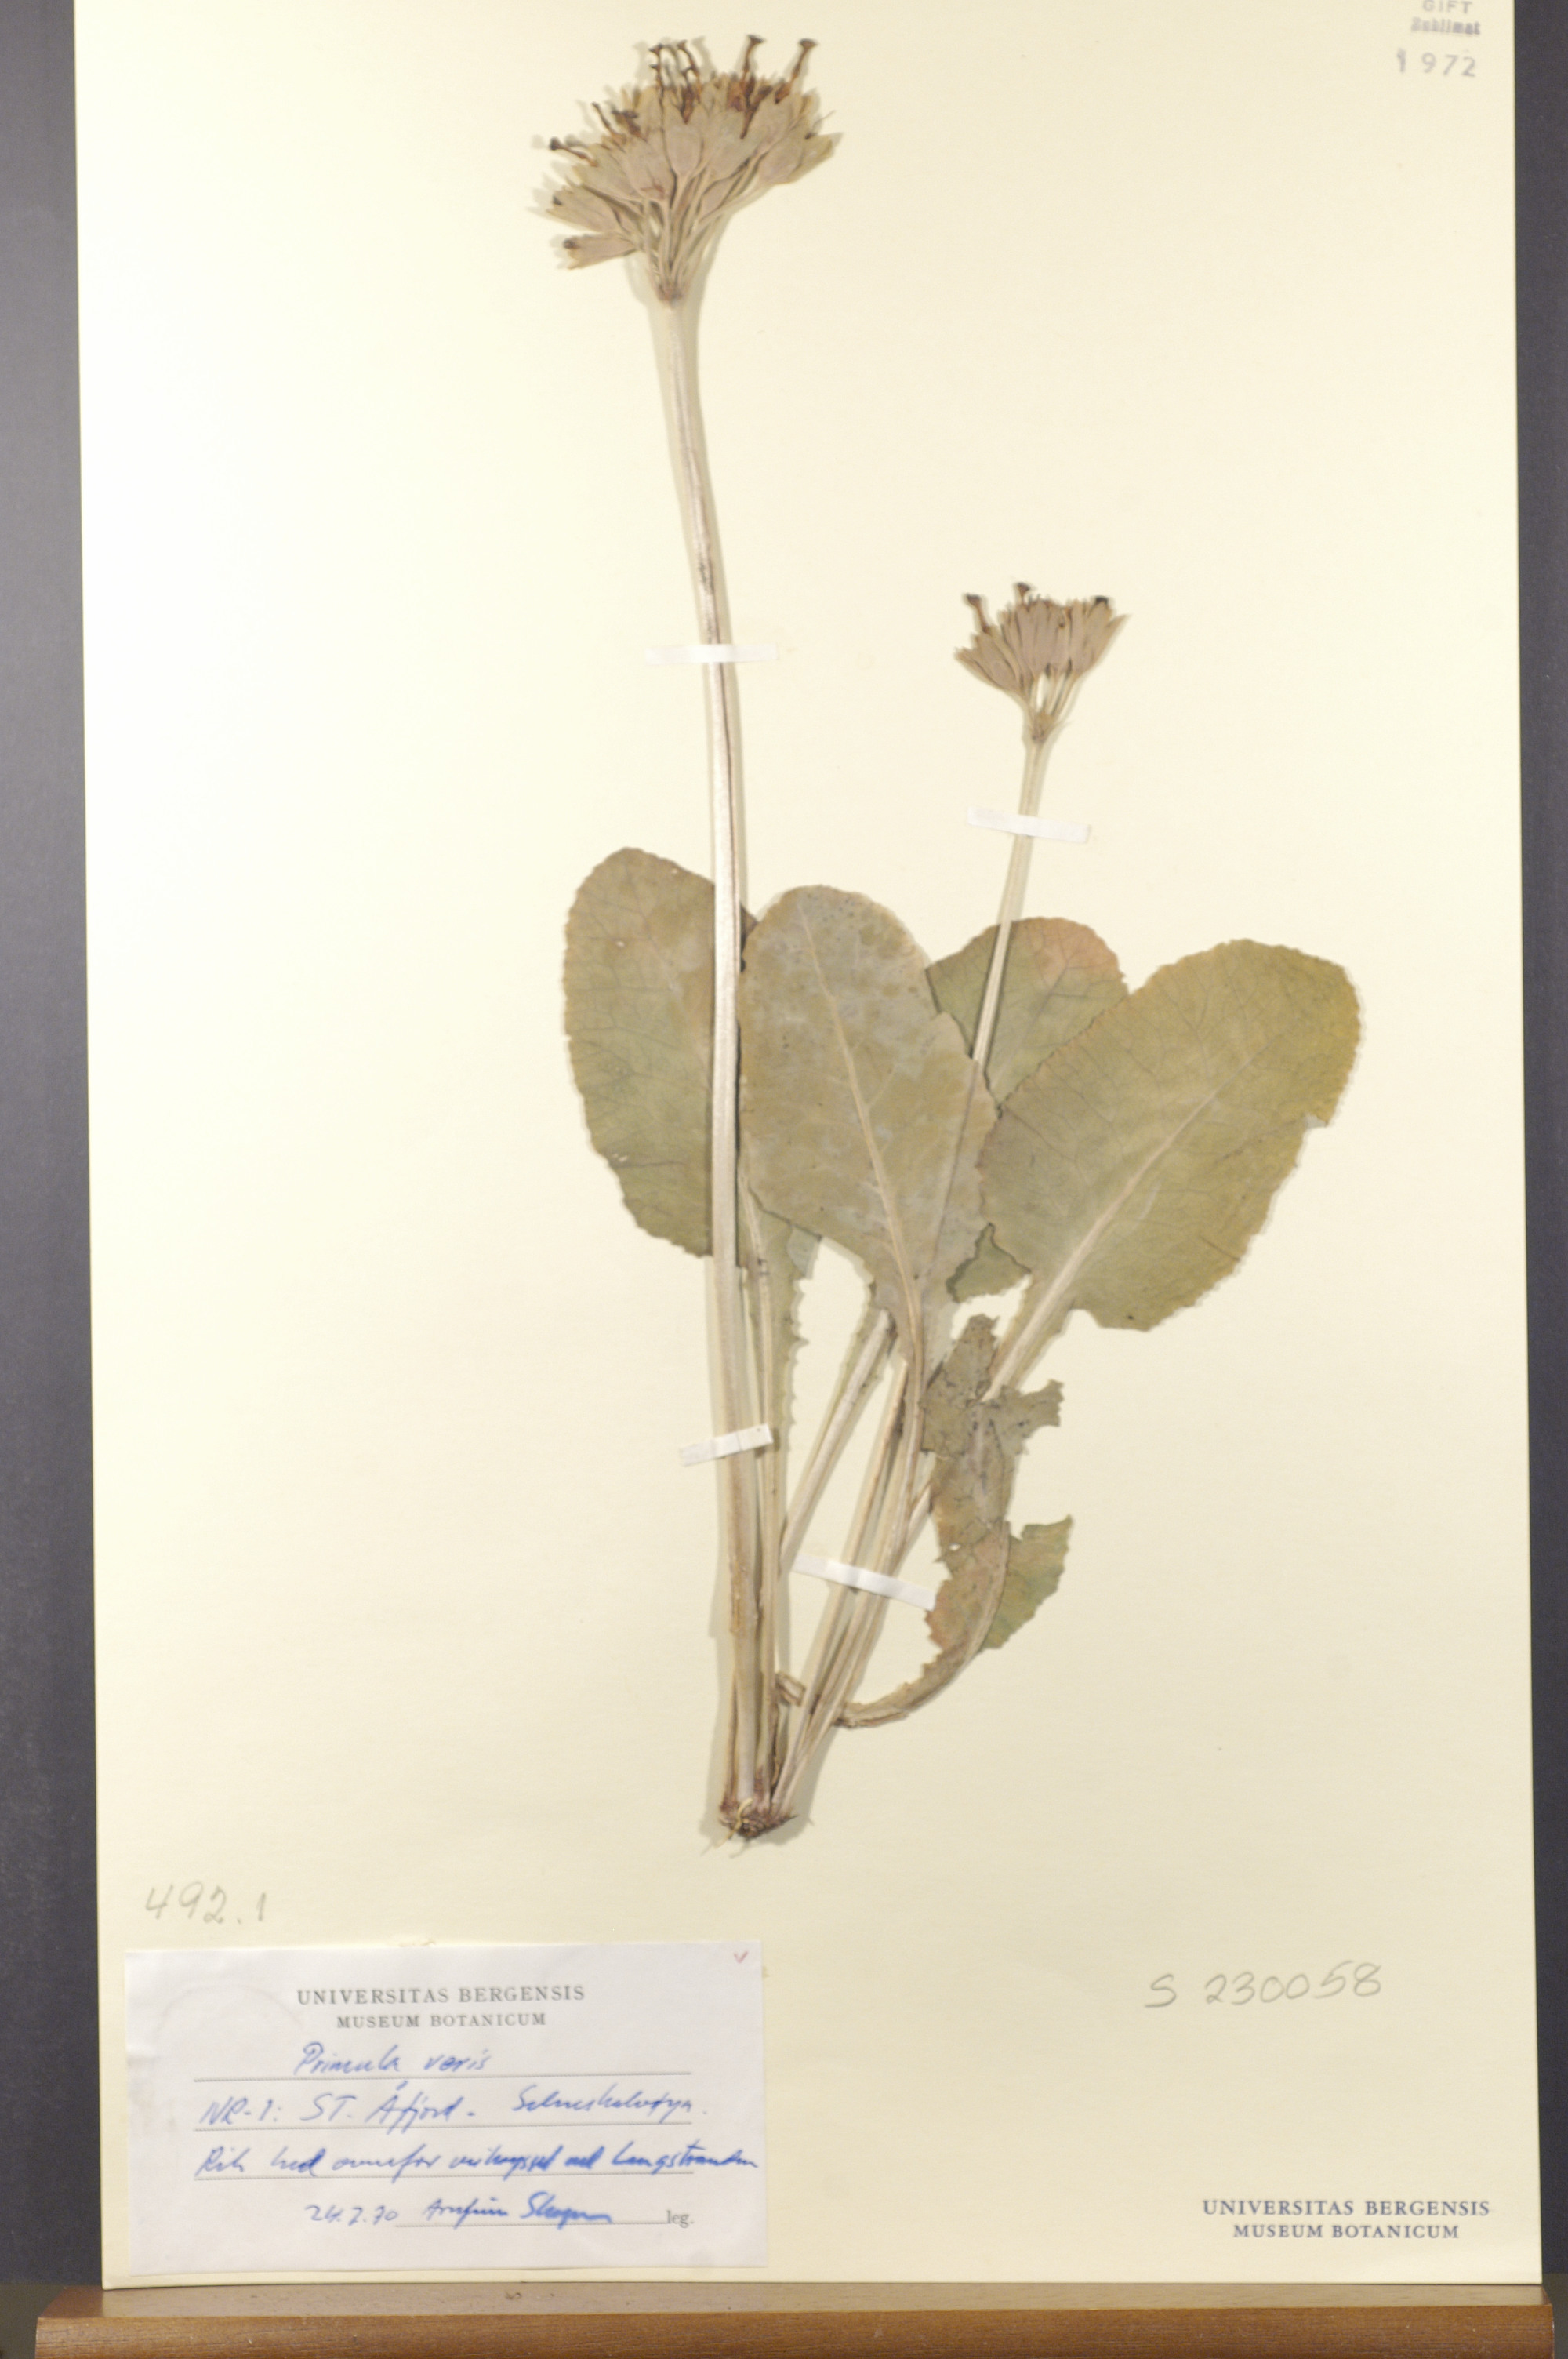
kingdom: Plantae
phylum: Tracheophyta
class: Magnoliopsida
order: Ericales
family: Primulaceae
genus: Primula
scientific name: Primula veris
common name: Cowslip
